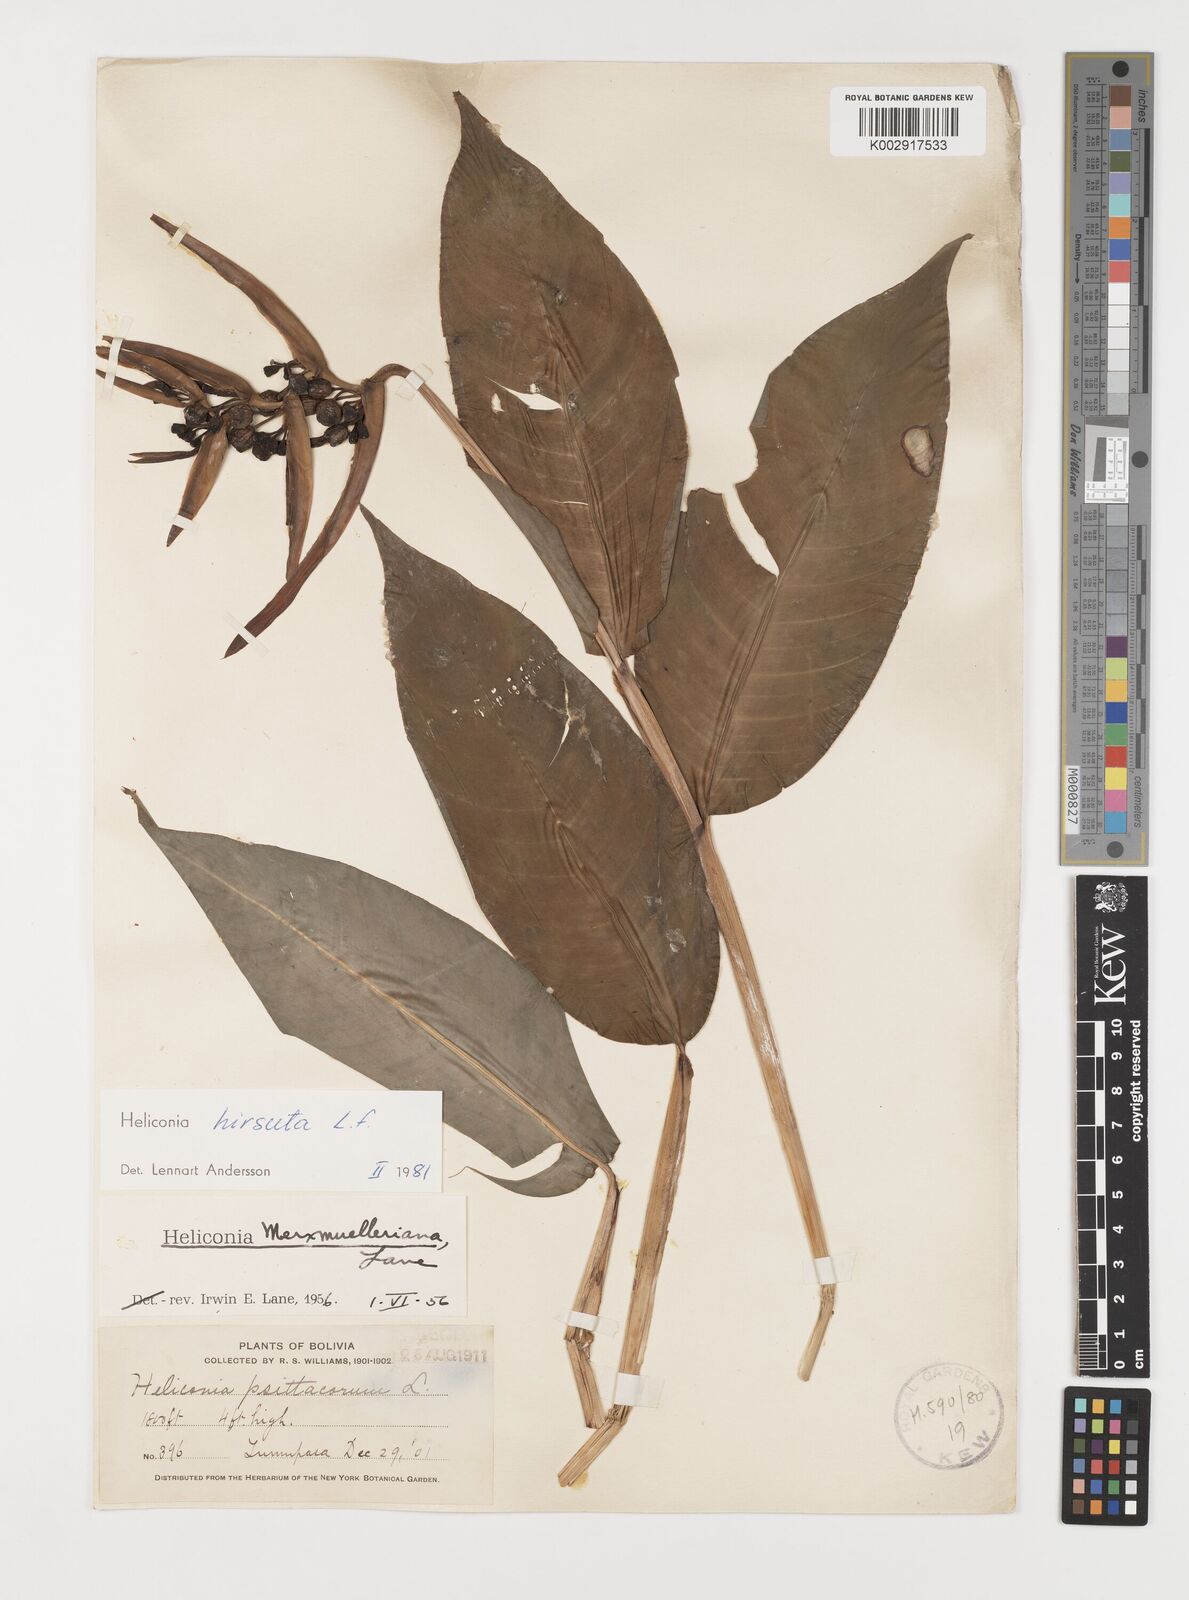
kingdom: Plantae
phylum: Tracheophyta
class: Liliopsida
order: Zingiberales
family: Heliconiaceae
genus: Heliconia
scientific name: Heliconia hirsuta
